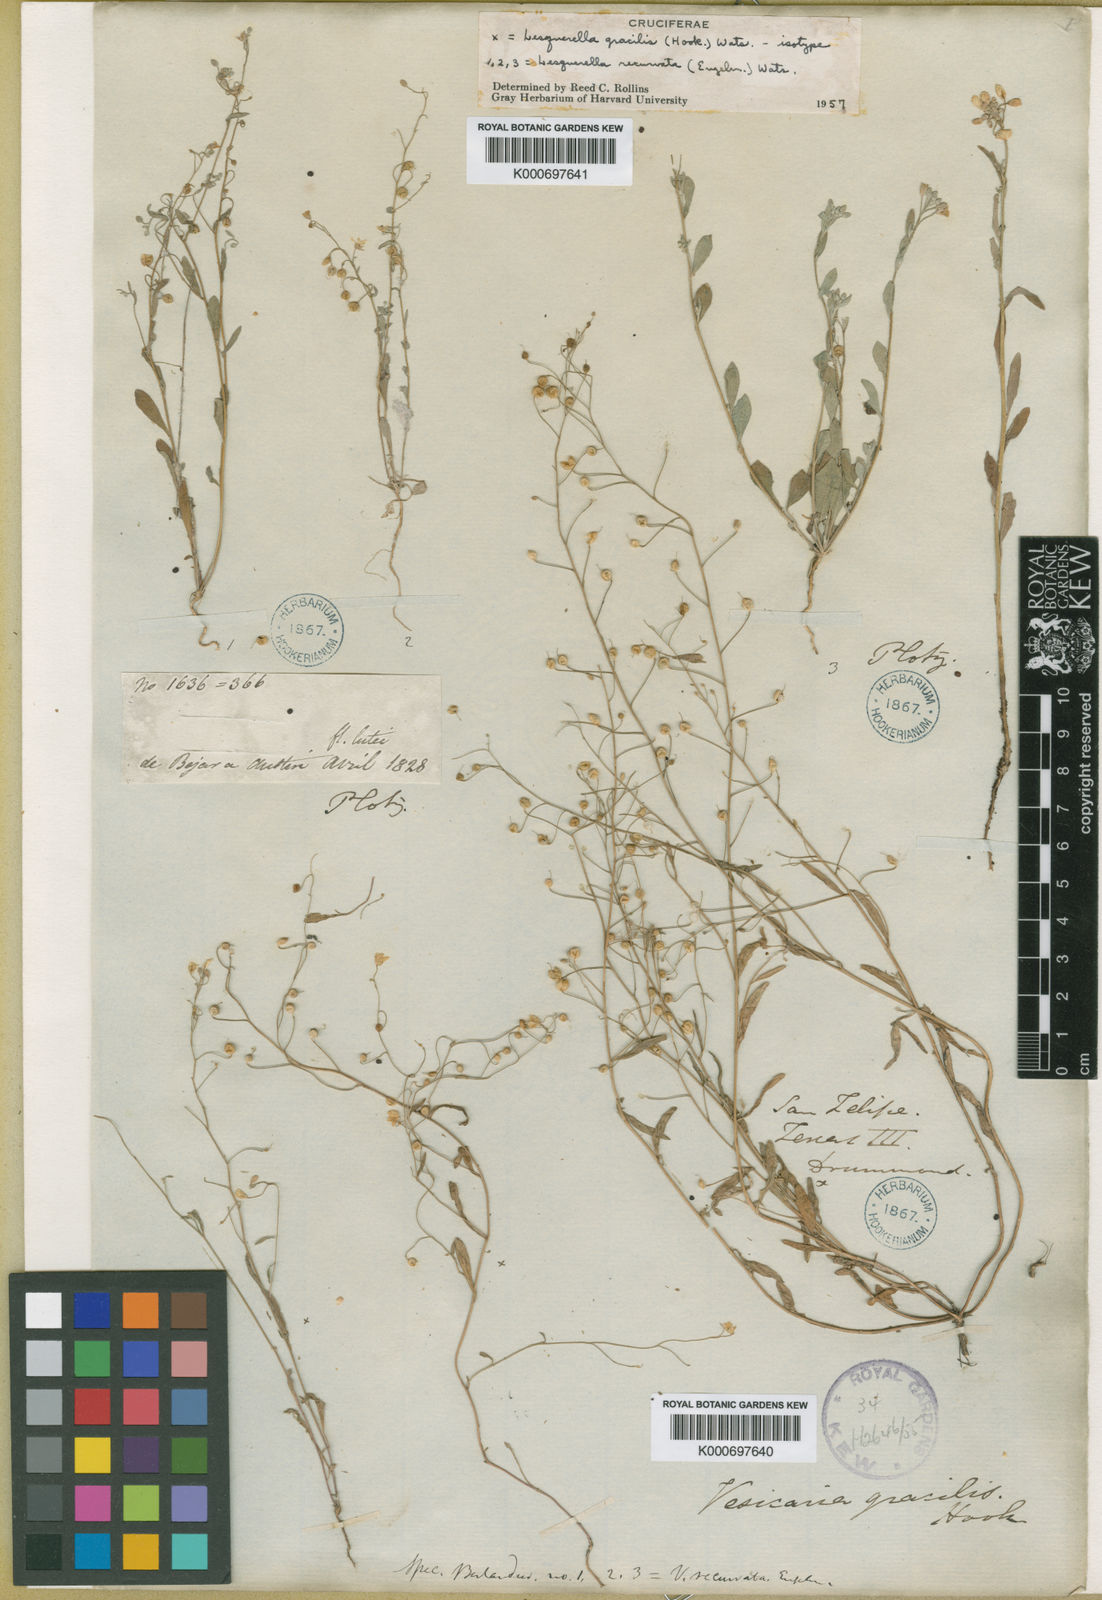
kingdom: Plantae
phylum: Tracheophyta
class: Magnoliopsida
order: Brassicales
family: Brassicaceae
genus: Physaria
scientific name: Physaria gracilis
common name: Spreading bladderpod
